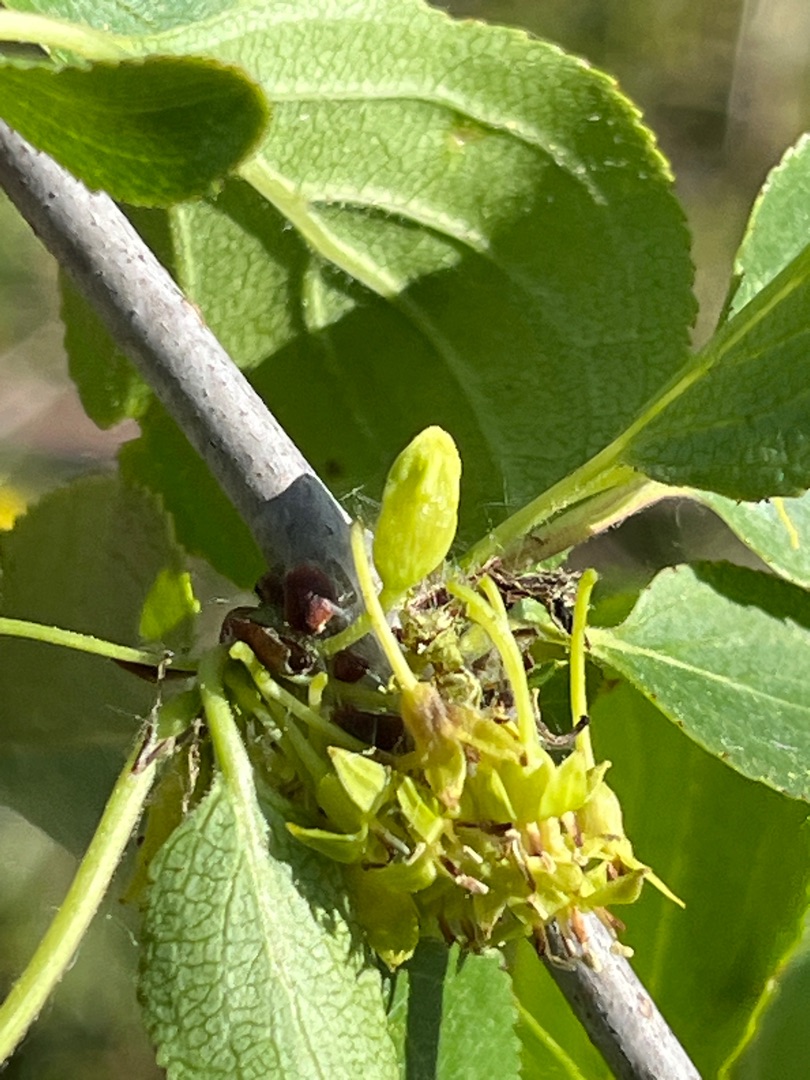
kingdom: Animalia
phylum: Arthropoda
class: Insecta
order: Diptera
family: Cecidomyiidae
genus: Contarinia
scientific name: Contarinia rhamni
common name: Tørstegalmyg
